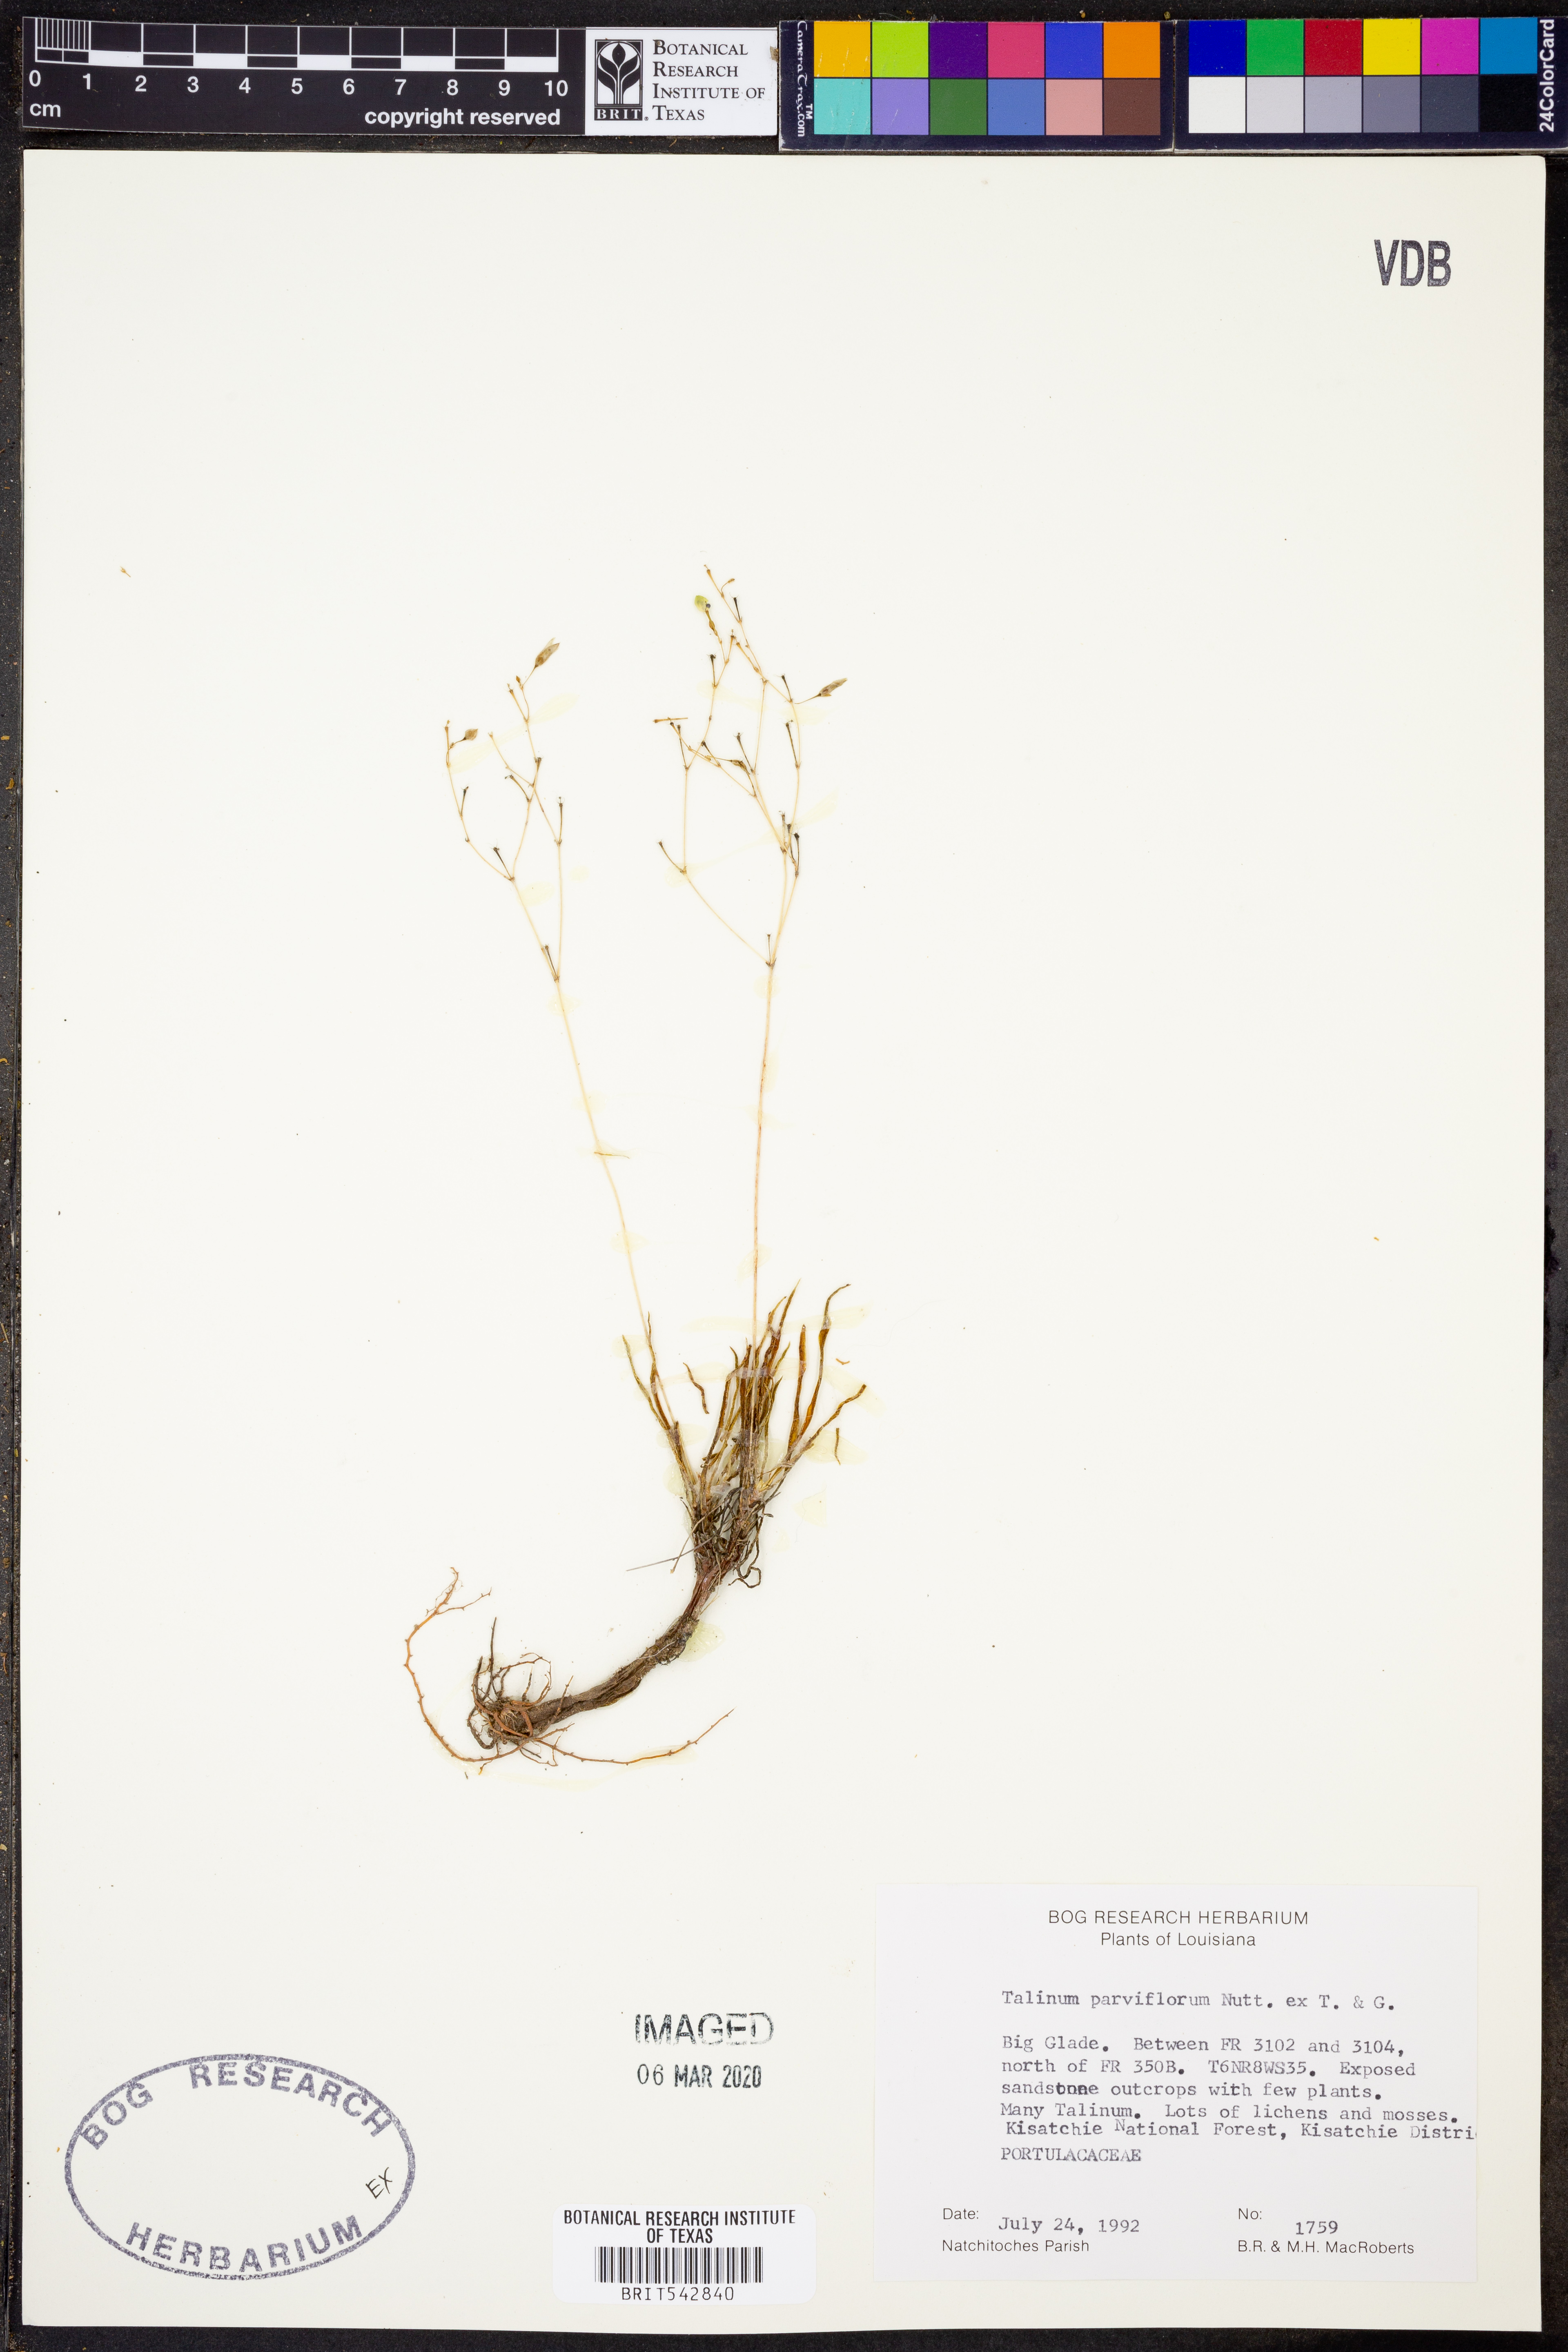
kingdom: Plantae
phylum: Tracheophyta
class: Magnoliopsida
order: Caryophyllales
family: Montiaceae
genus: Phemeranthus
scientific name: Phemeranthus parviflorus
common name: Sunbright
